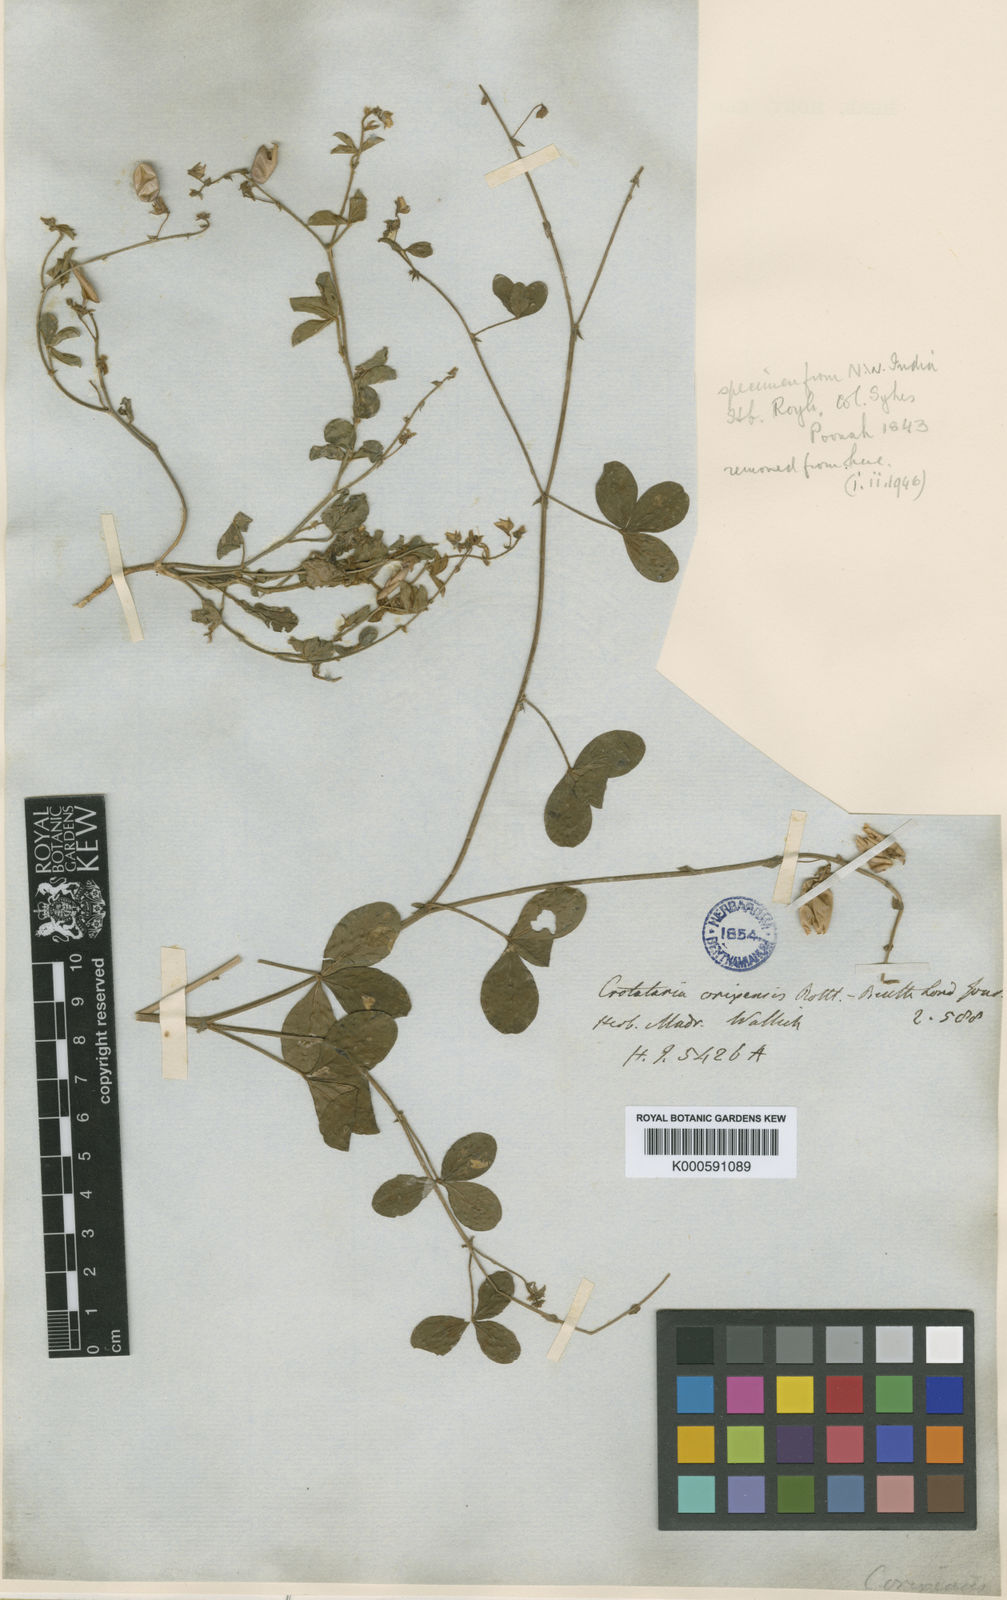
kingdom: Plantae
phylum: Tracheophyta
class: Magnoliopsida
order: Fabales
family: Fabaceae
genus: Crotalaria
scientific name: Crotalaria
